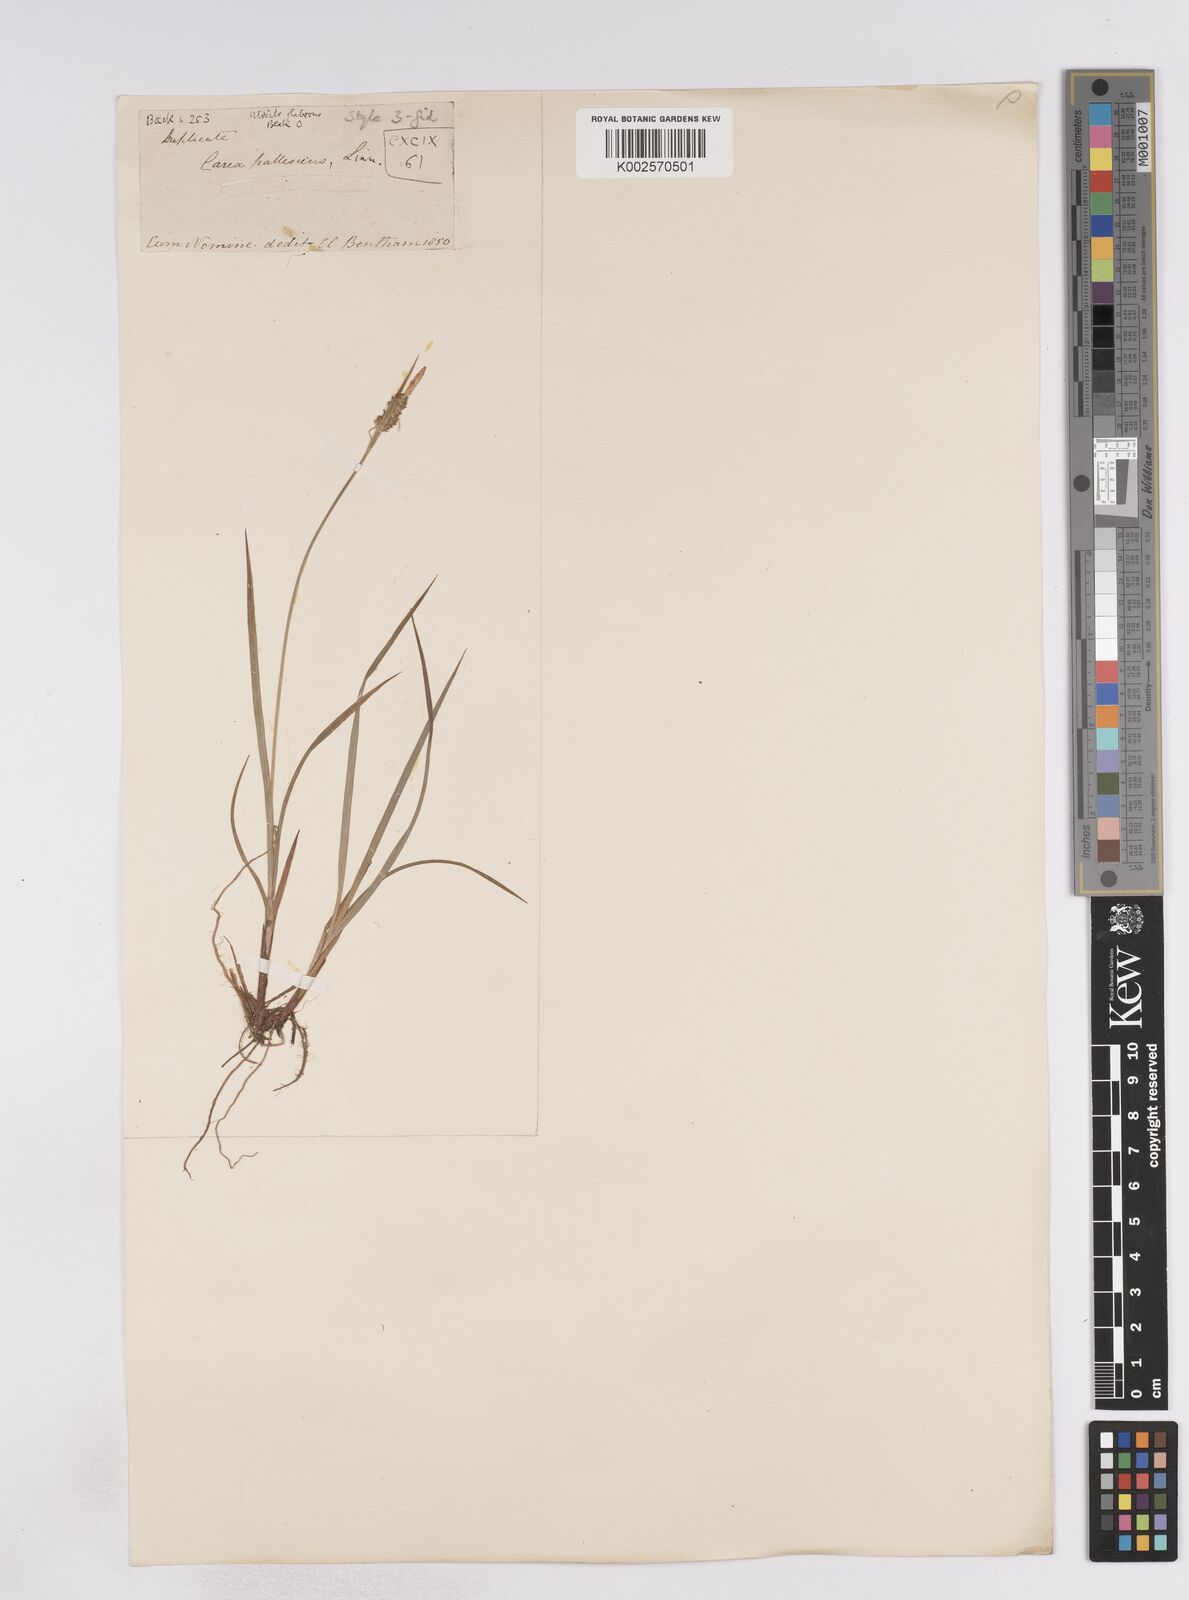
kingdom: Plantae
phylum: Tracheophyta
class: Liliopsida
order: Poales
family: Cyperaceae
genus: Carex
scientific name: Carex pallescens
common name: Pale sedge
